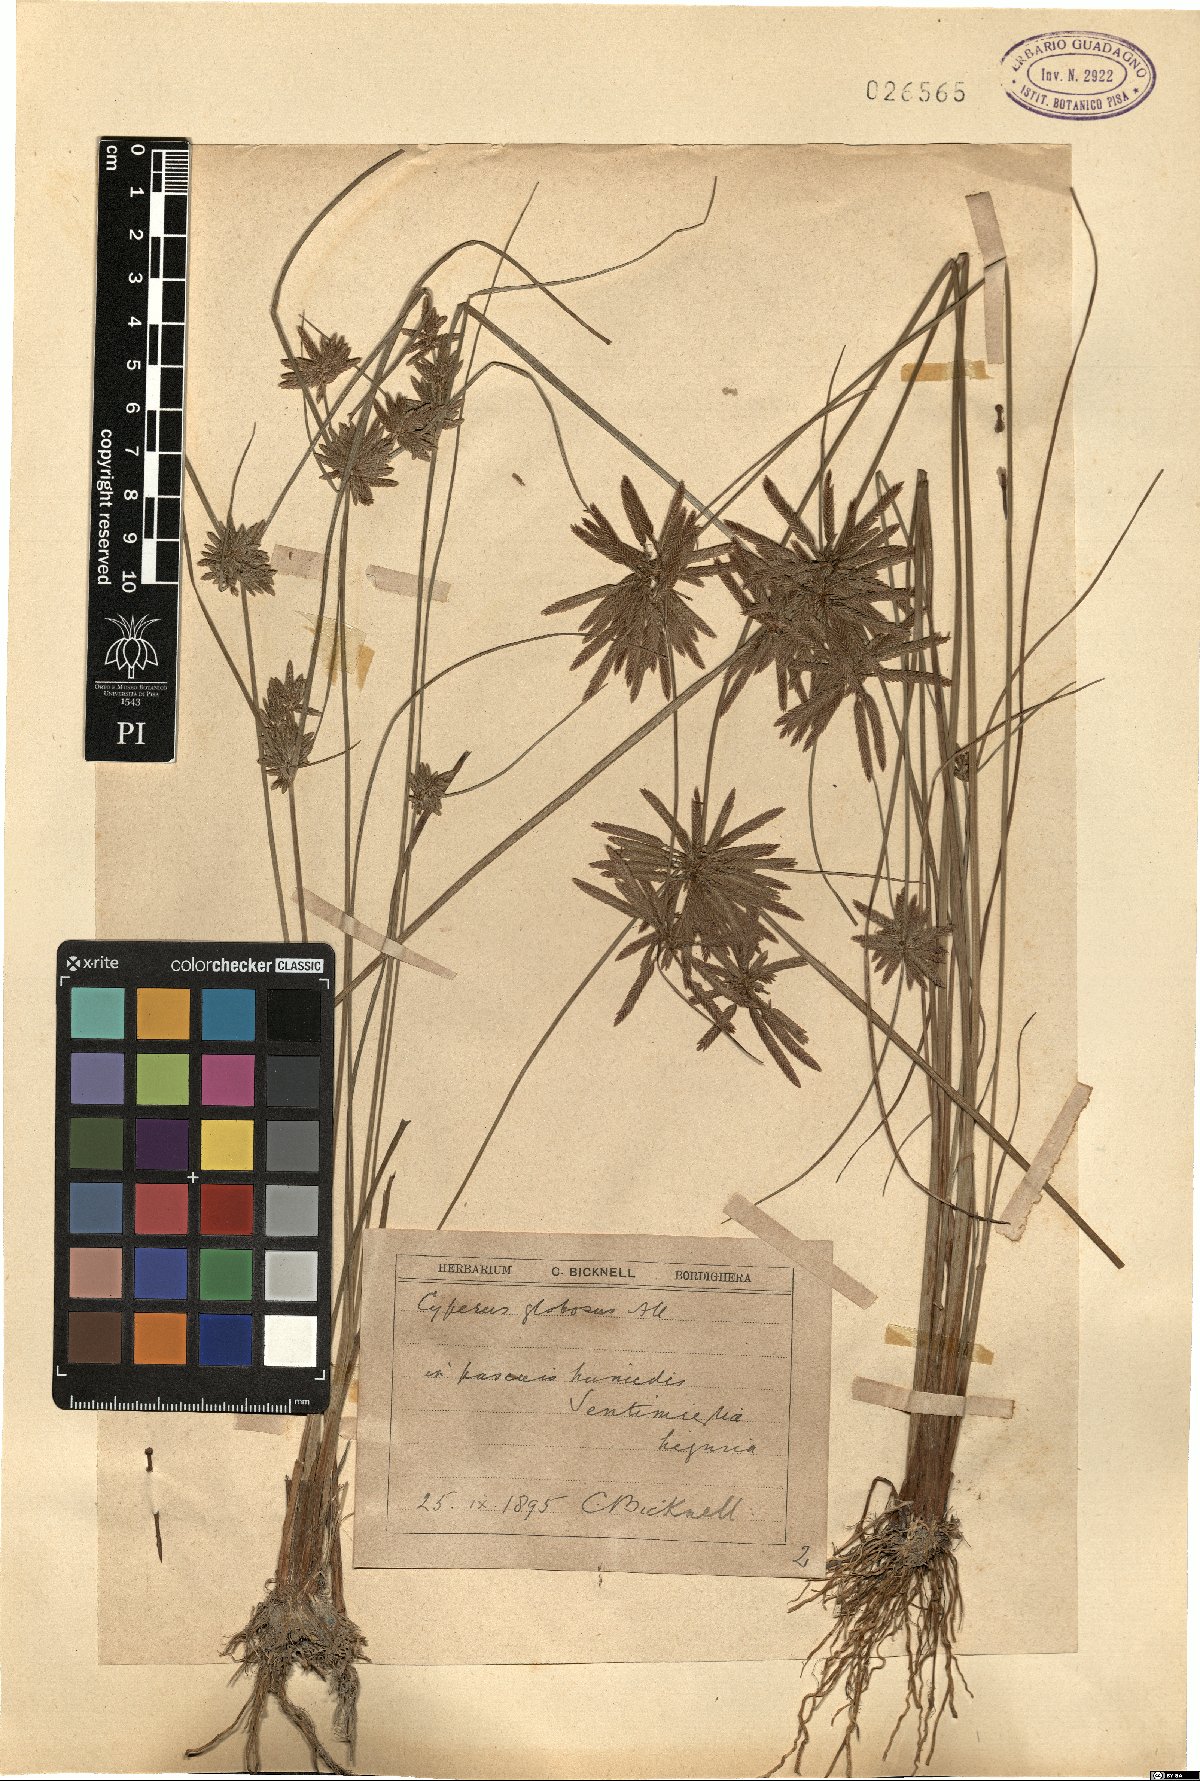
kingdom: Plantae
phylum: Tracheophyta
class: Liliopsida
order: Poales
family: Cyperaceae
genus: Cyperus
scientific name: Cyperus flavidus
